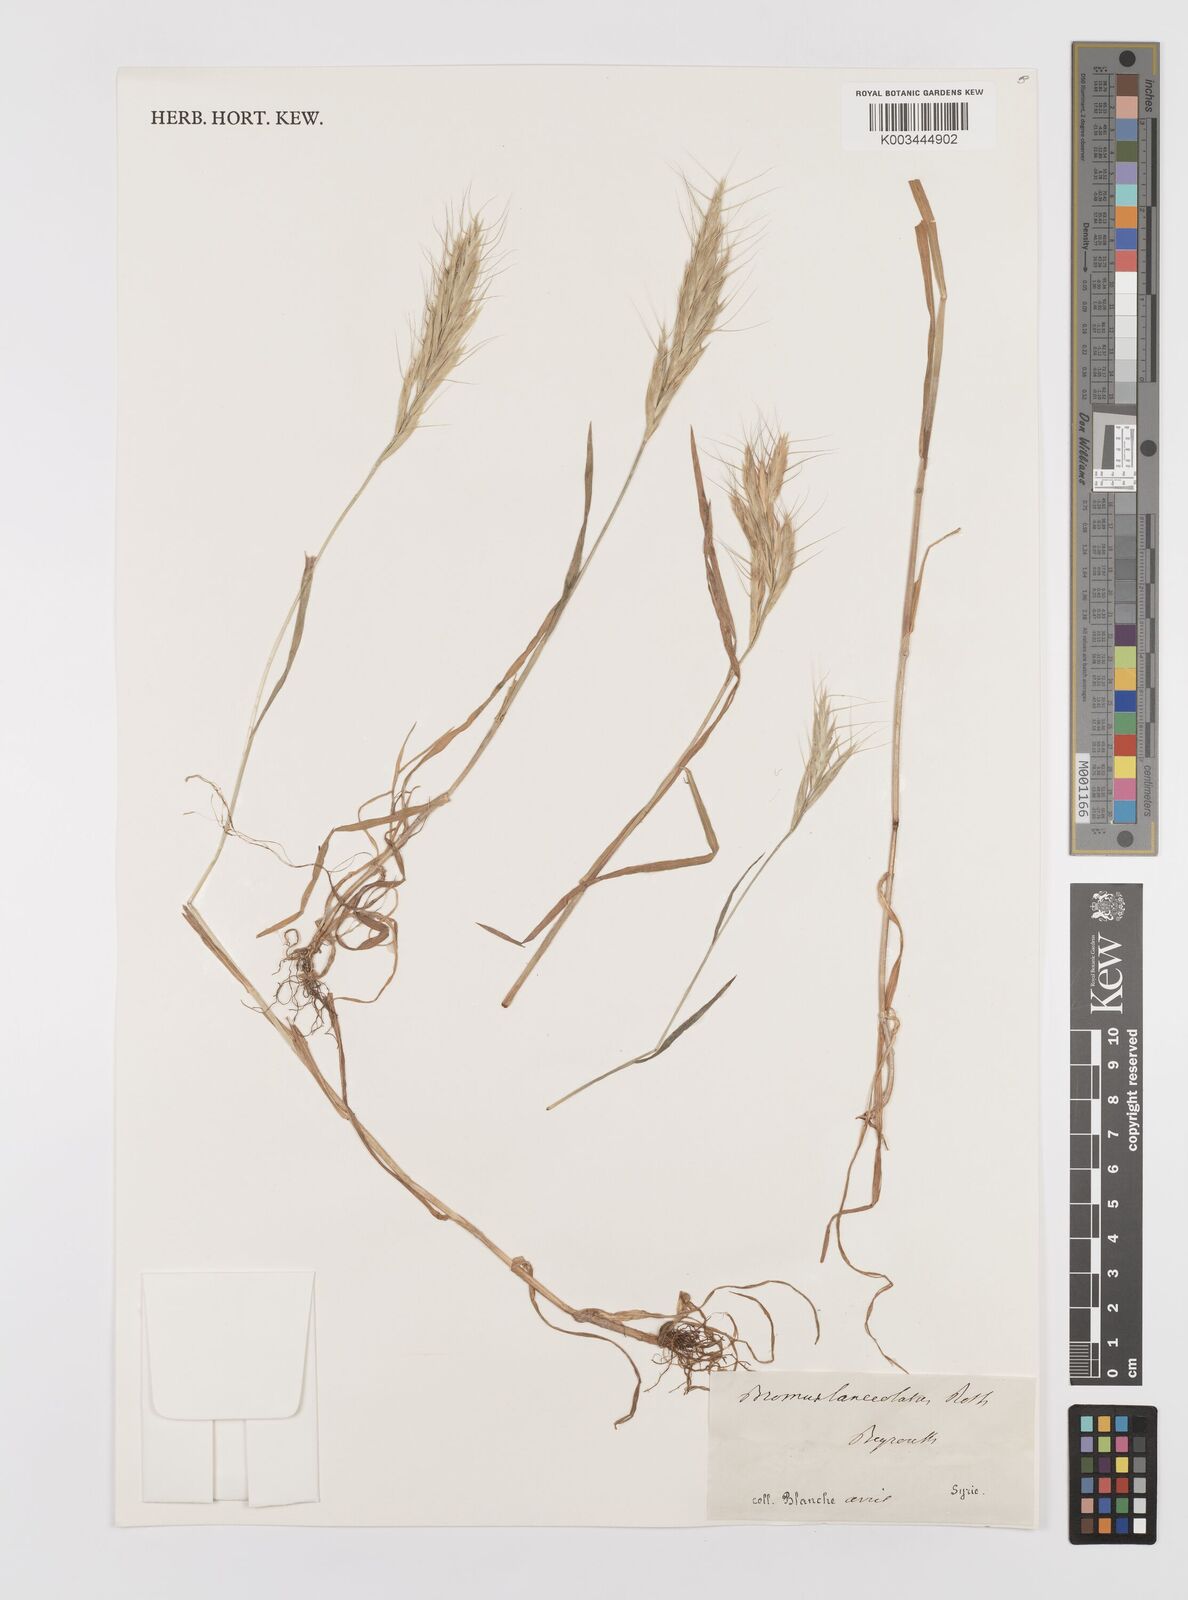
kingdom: Plantae
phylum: Tracheophyta
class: Liliopsida
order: Poales
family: Poaceae
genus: Bromus
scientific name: Bromus lanceolatus
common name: Mediterranean brome
